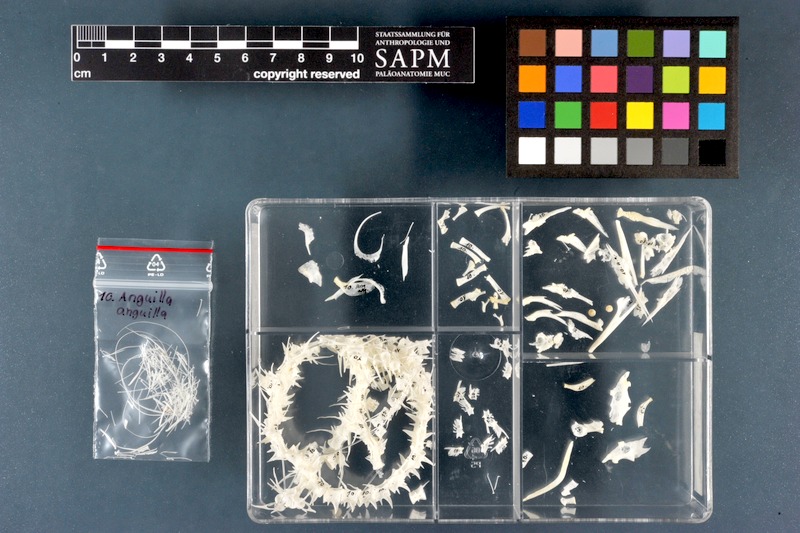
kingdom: Animalia
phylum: Chordata
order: Anguilliformes
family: Anguillidae
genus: Anguilla
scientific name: Anguilla anguilla
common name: European eel
